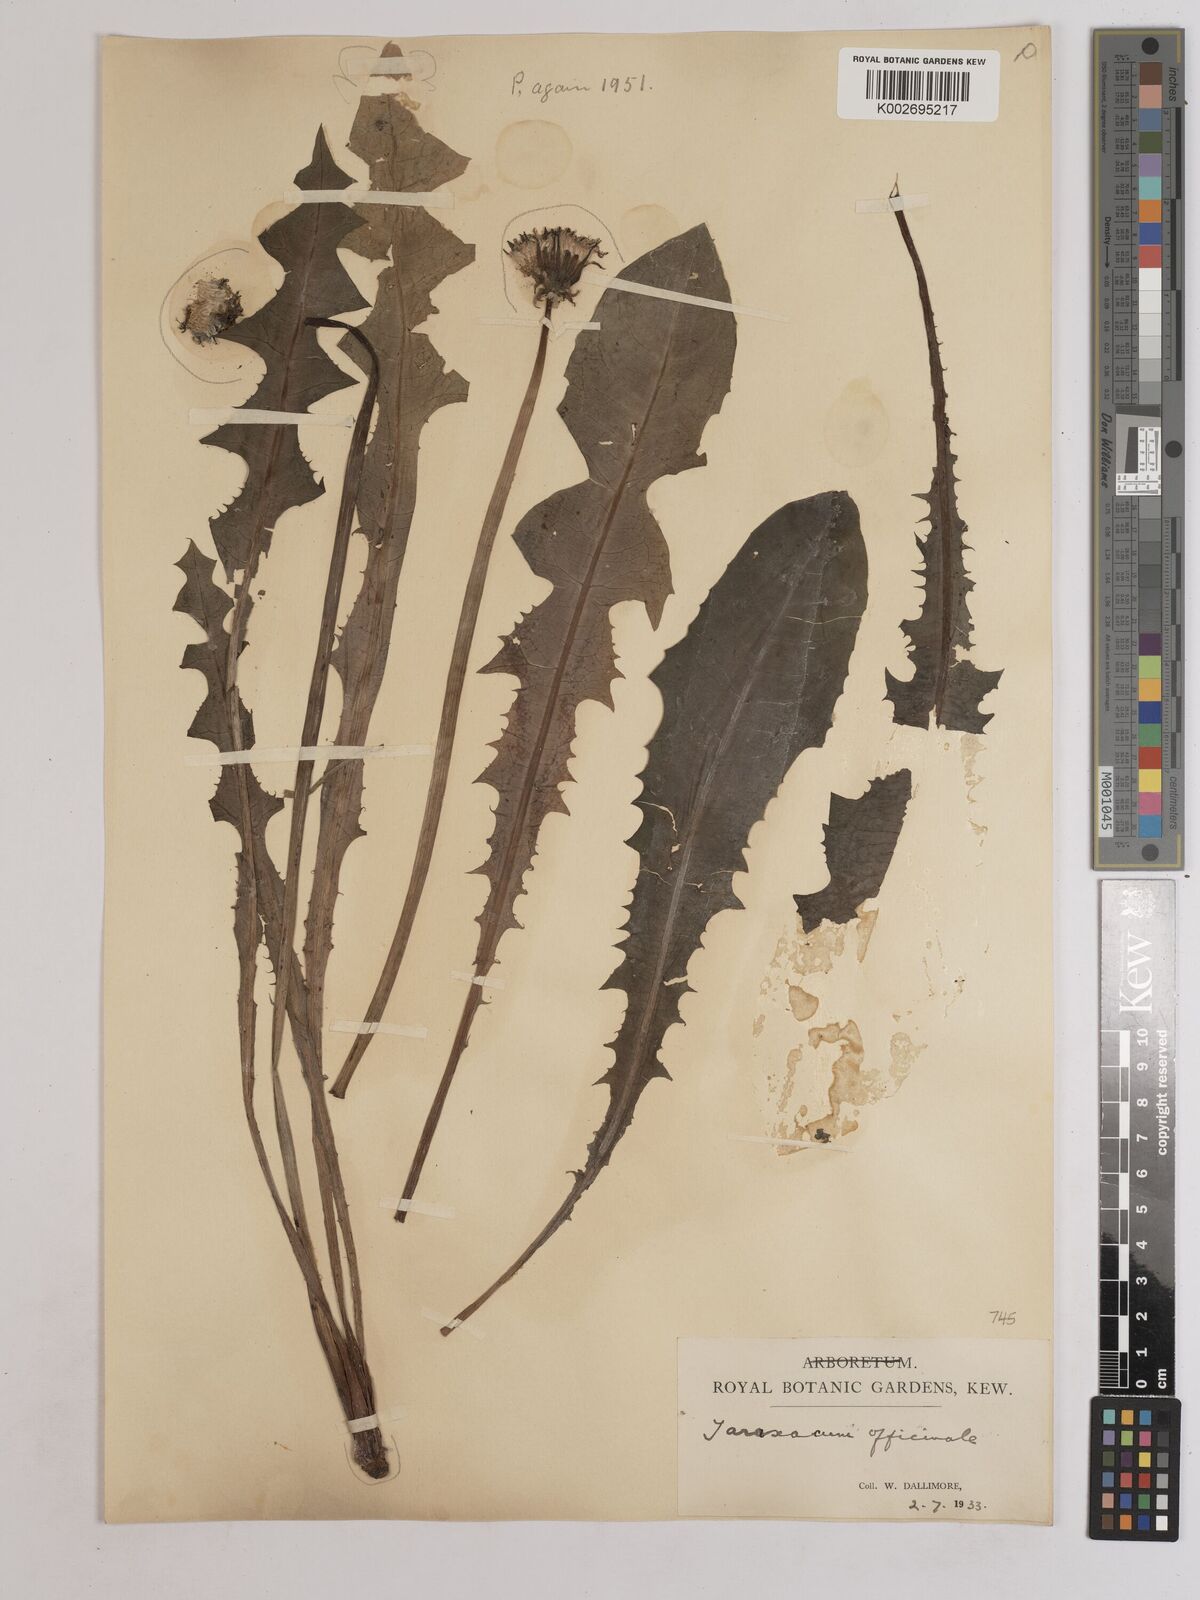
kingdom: Plantae
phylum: Tracheophyta
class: Magnoliopsida
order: Asterales
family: Asteraceae
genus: Taraxacum
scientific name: Taraxacum officinale
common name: Common dandelion
